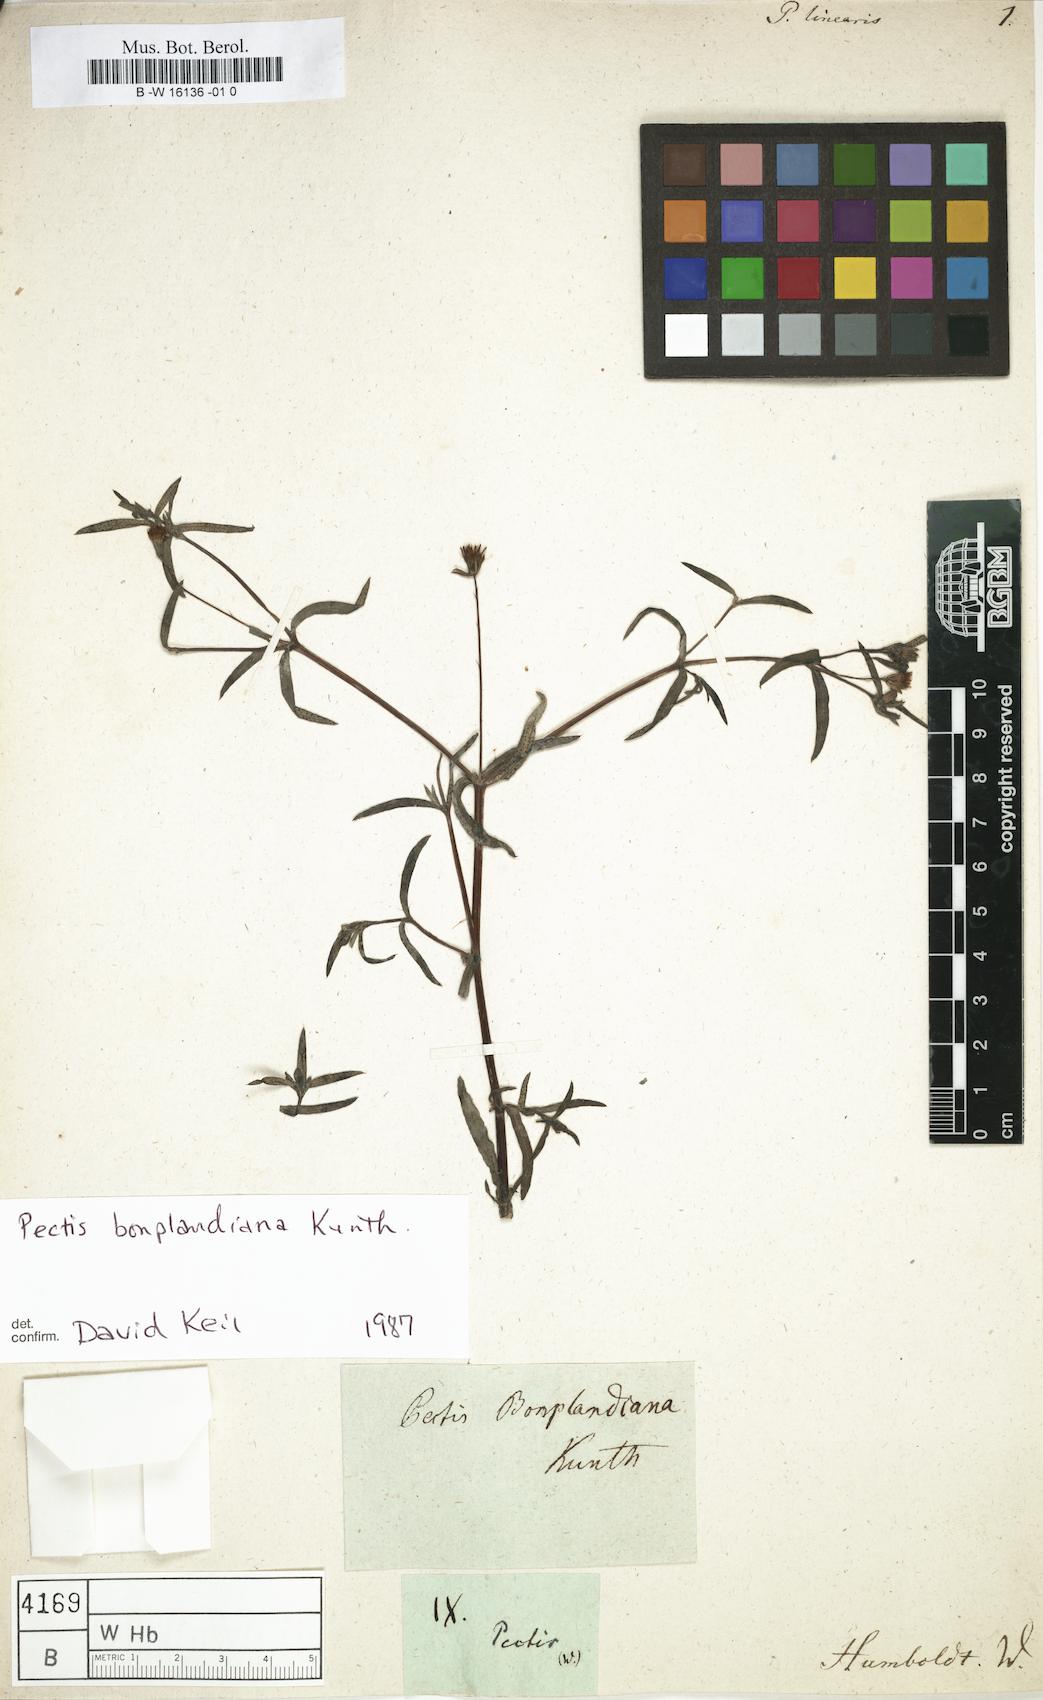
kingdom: Plantae
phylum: Tracheophyta
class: Magnoliopsida
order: Asterales
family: Asteraceae
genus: Pectis
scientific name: Pectis linearis
